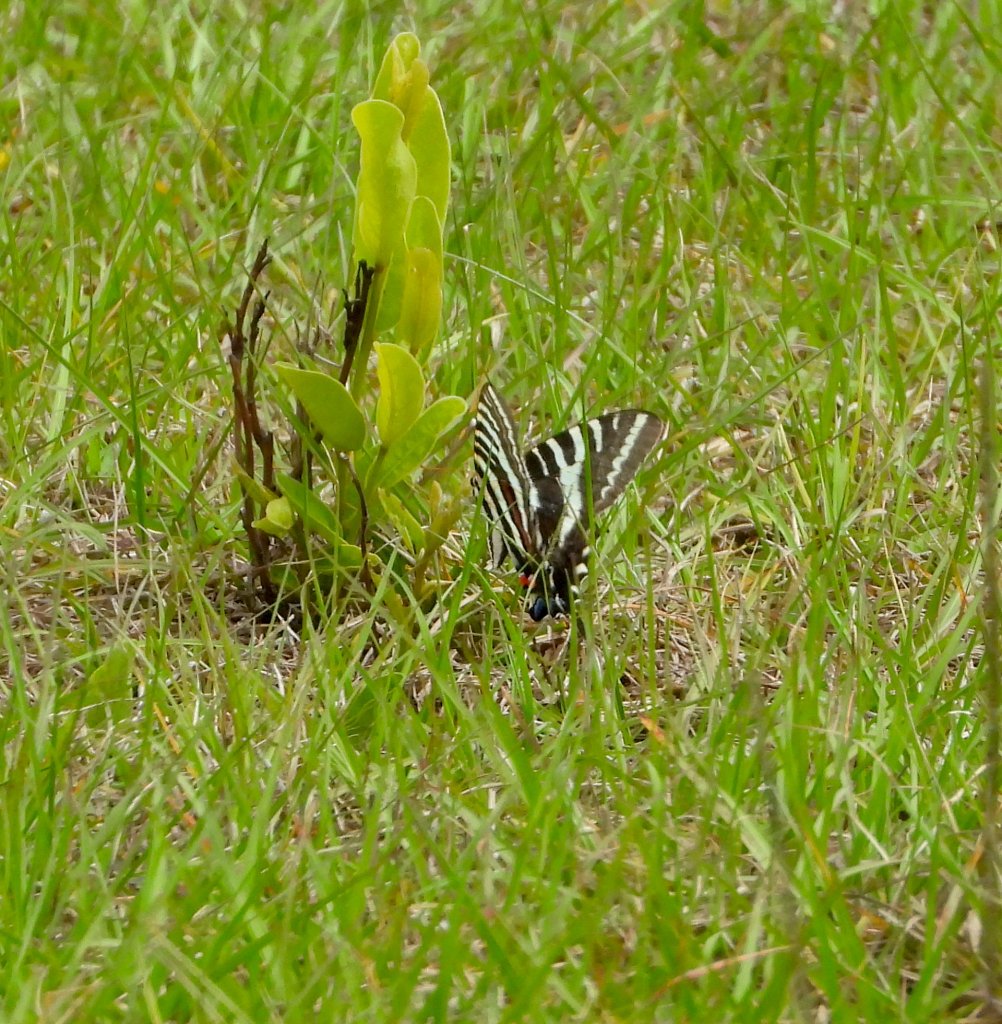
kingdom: Animalia
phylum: Arthropoda
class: Insecta
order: Lepidoptera
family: Papilionidae
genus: Protographium
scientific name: Protographium marcellus
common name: Zebra Swallowtail
